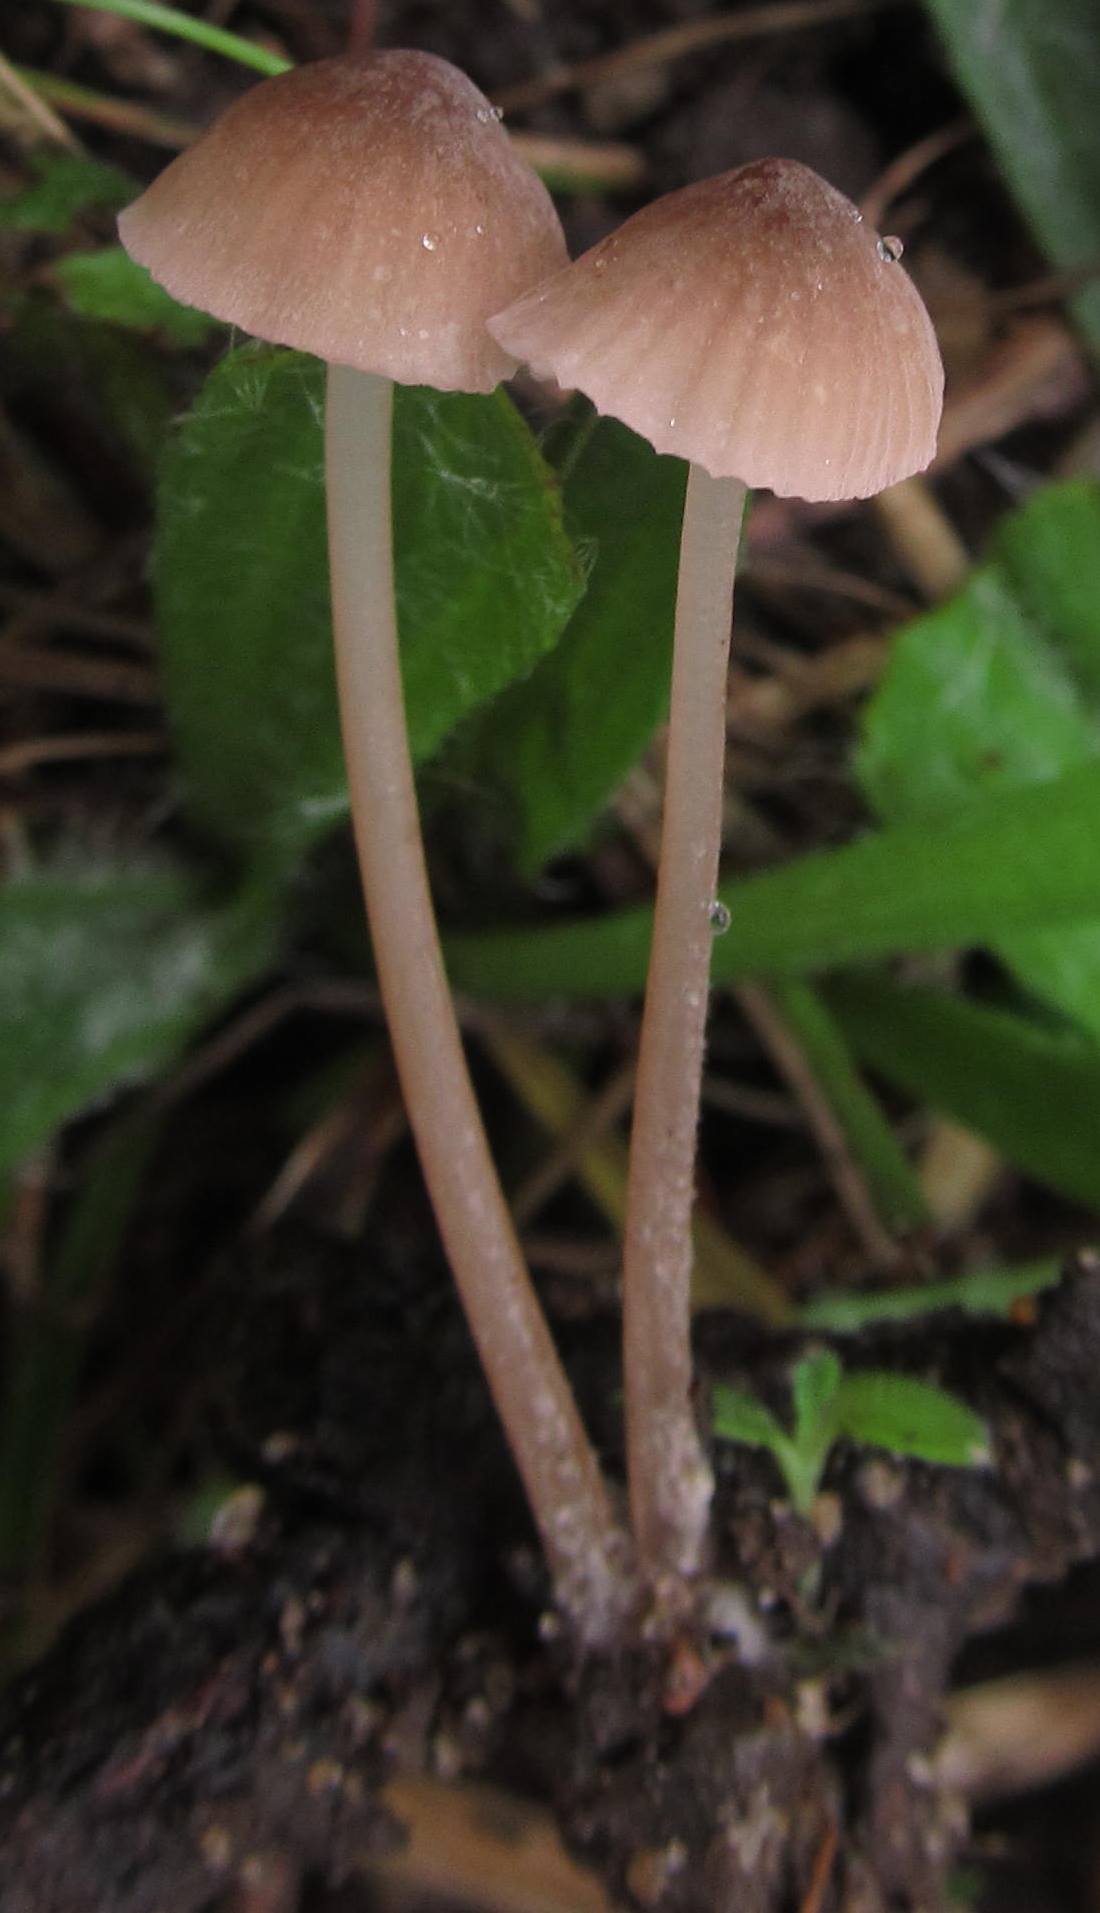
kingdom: Fungi
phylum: Basidiomycota
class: Agaricomycetes
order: Agaricales
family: Mycenaceae
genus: Mycena
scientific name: Mycena olivaceomarginata
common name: brunægget huesvamp
